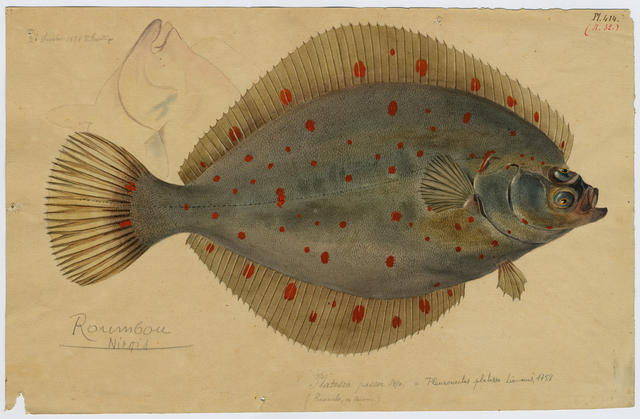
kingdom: Animalia
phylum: Chordata
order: Pleuronectiformes
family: Pleuronectidae
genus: Pleuronectes
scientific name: Pleuronectes platessa
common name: Plaice
